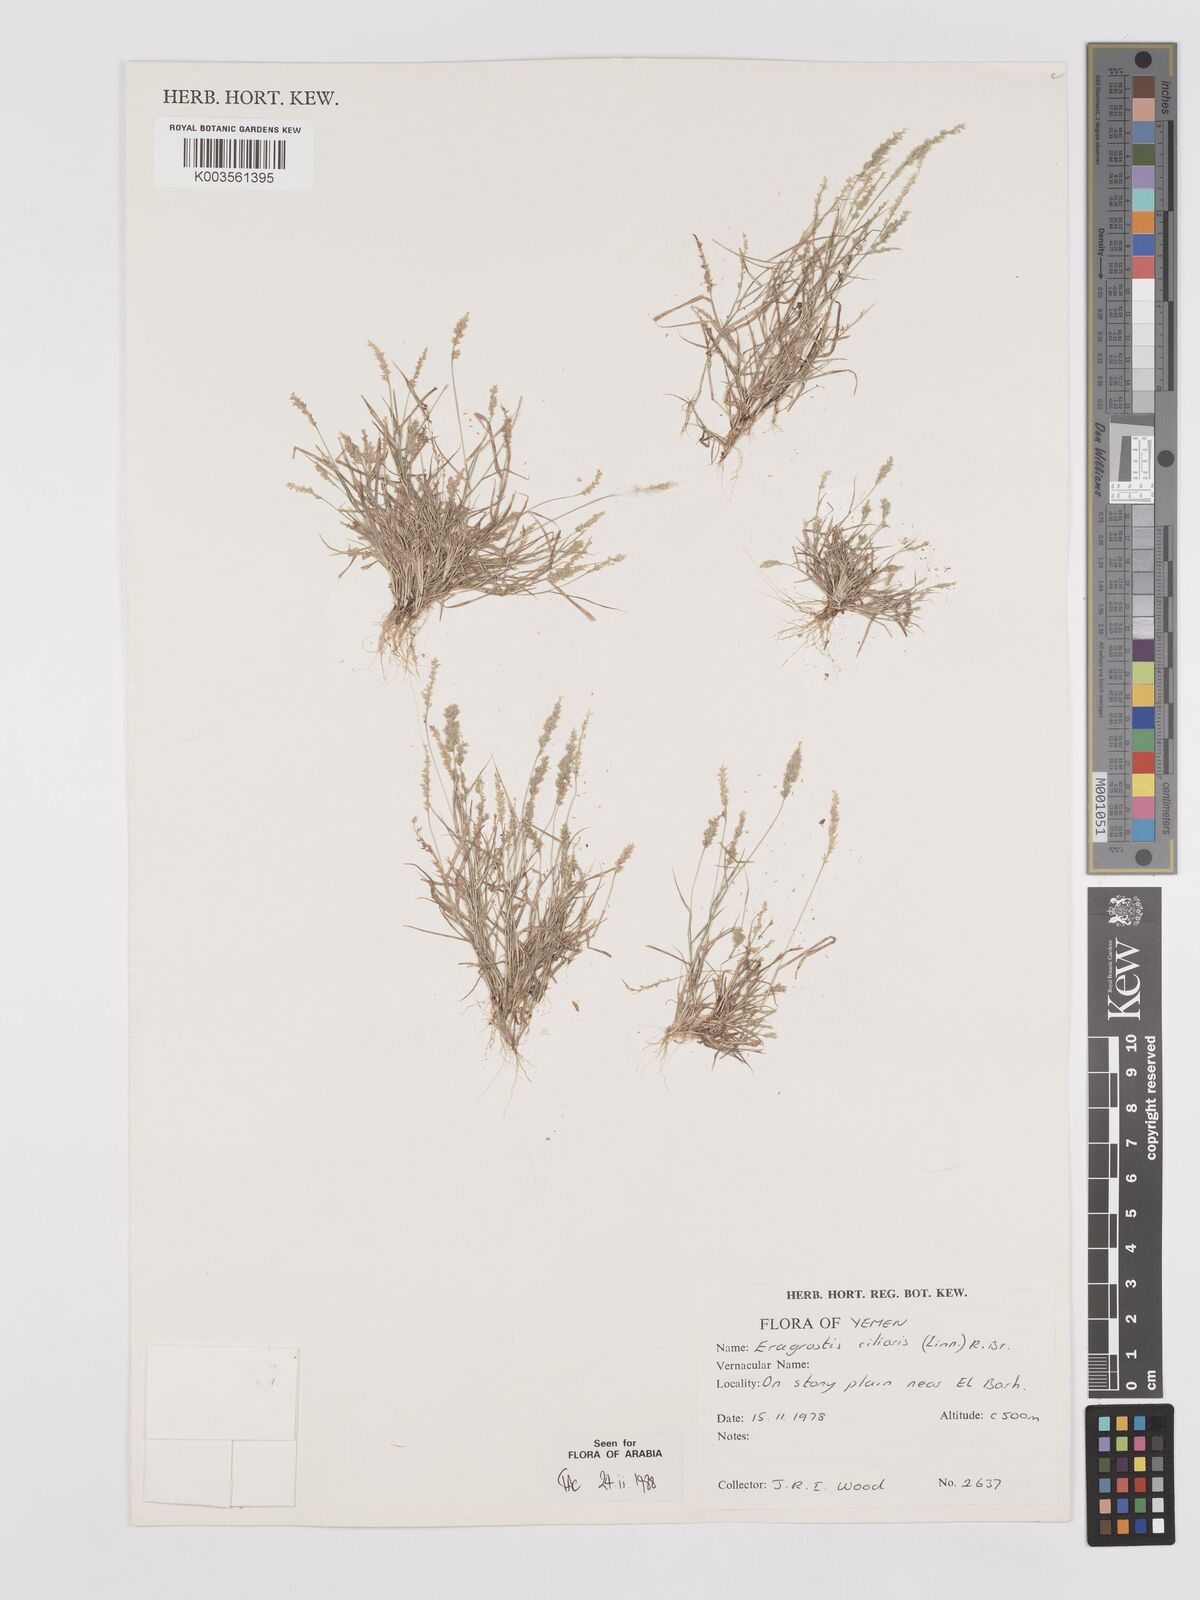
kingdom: Plantae
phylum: Tracheophyta
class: Liliopsida
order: Poales
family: Poaceae
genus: Eragrostis
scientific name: Eragrostis ciliaris
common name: Gophertail lovegrass
